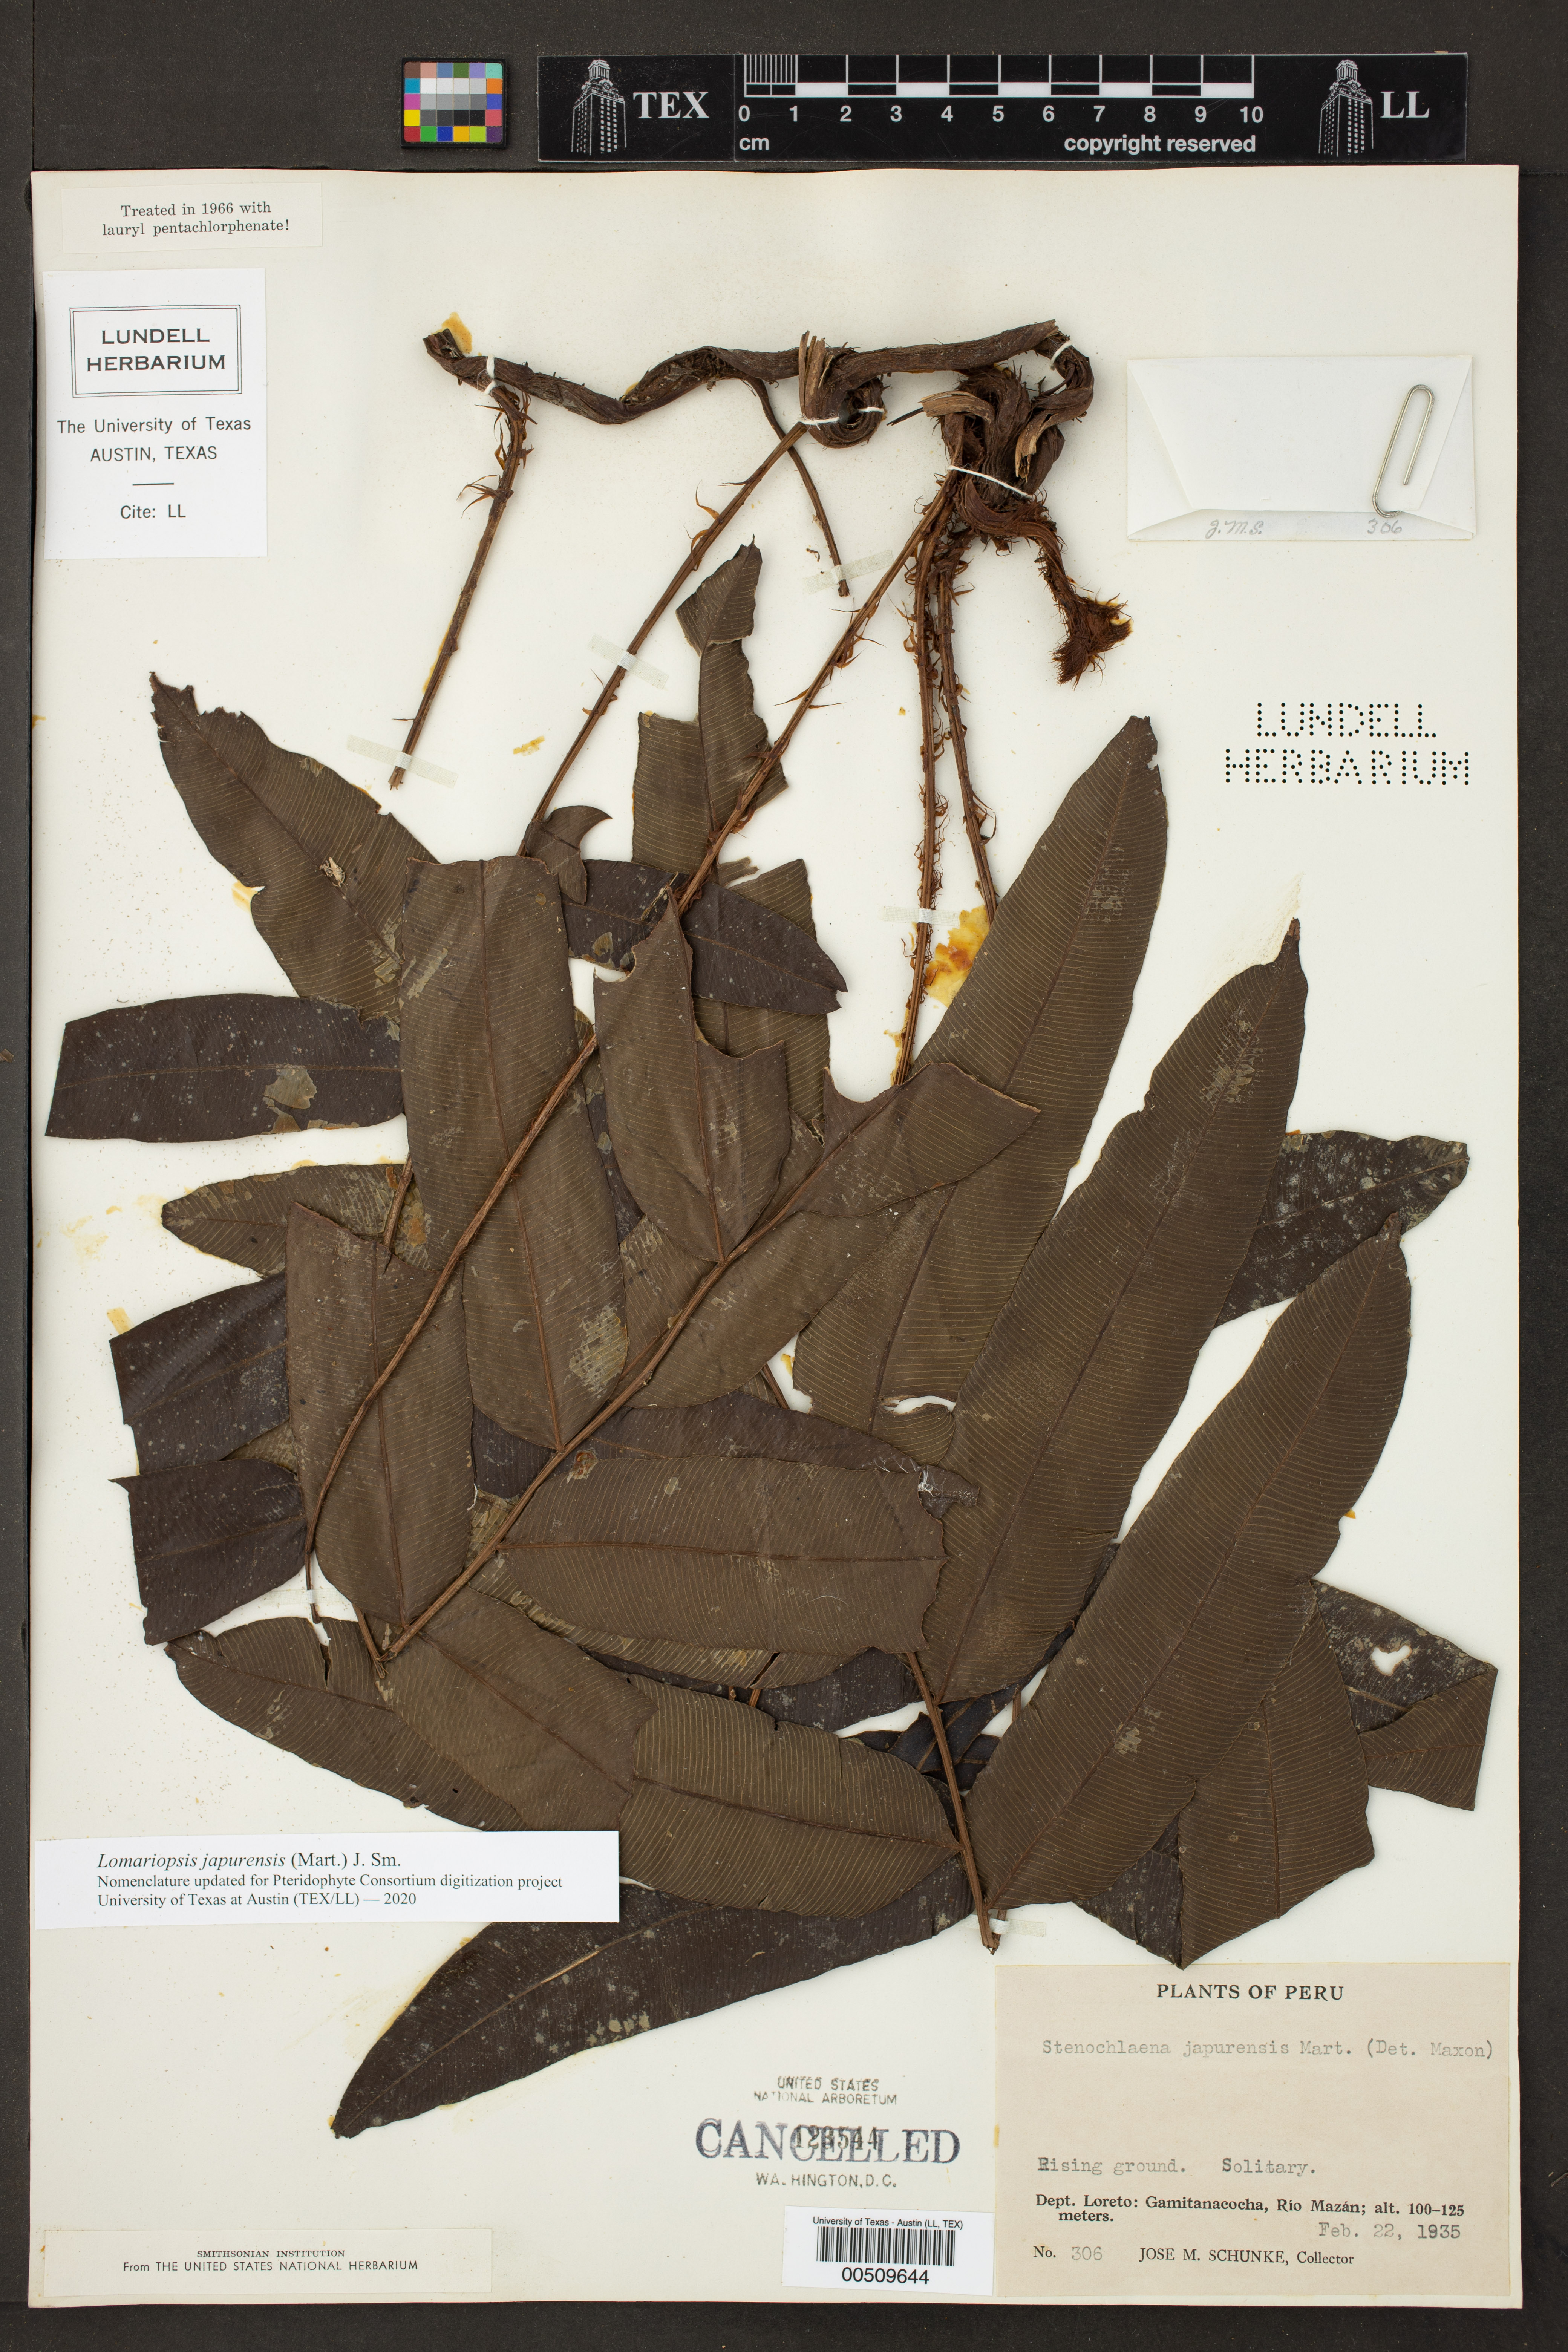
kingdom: Plantae
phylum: Tracheophyta
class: Polypodiopsida
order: Polypodiales
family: Lomariopsidaceae
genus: Lomariopsis
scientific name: Lomariopsis japurensis
